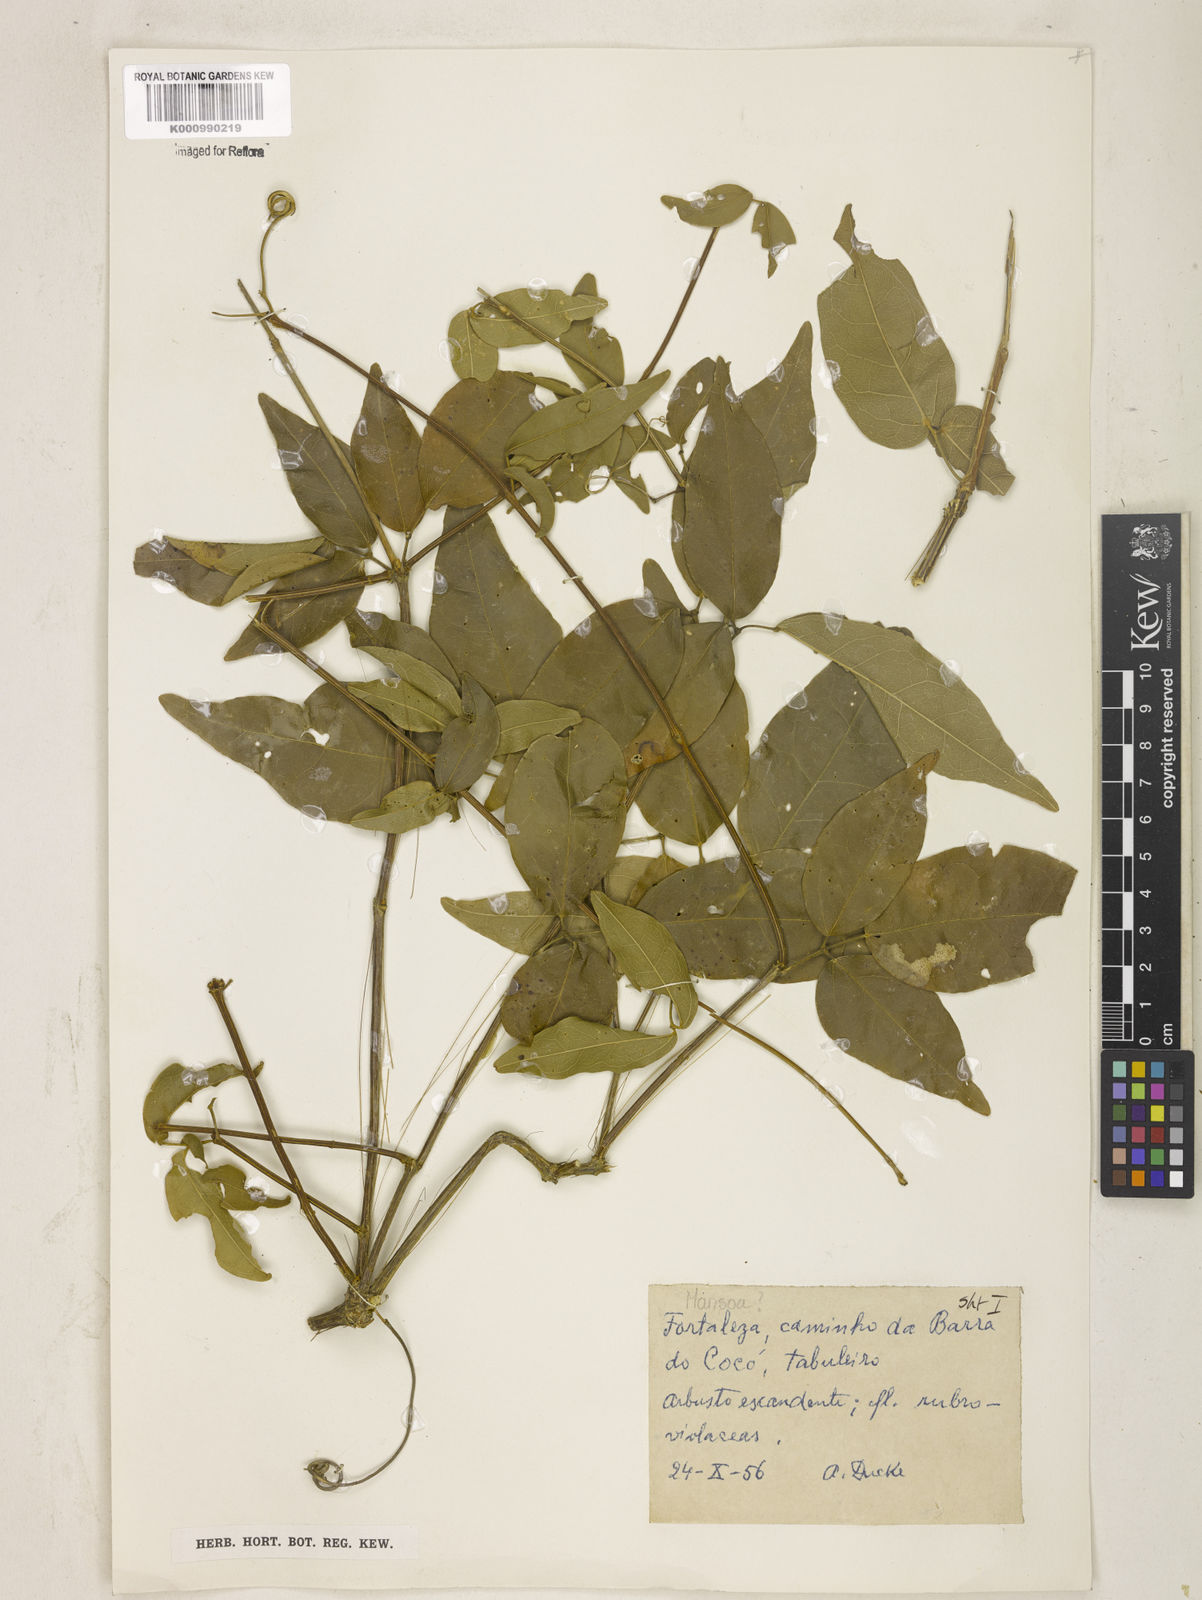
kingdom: Plantae
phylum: Tracheophyta
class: Magnoliopsida
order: Lamiales
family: Bignoniaceae
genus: Mansoa
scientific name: Mansoa
